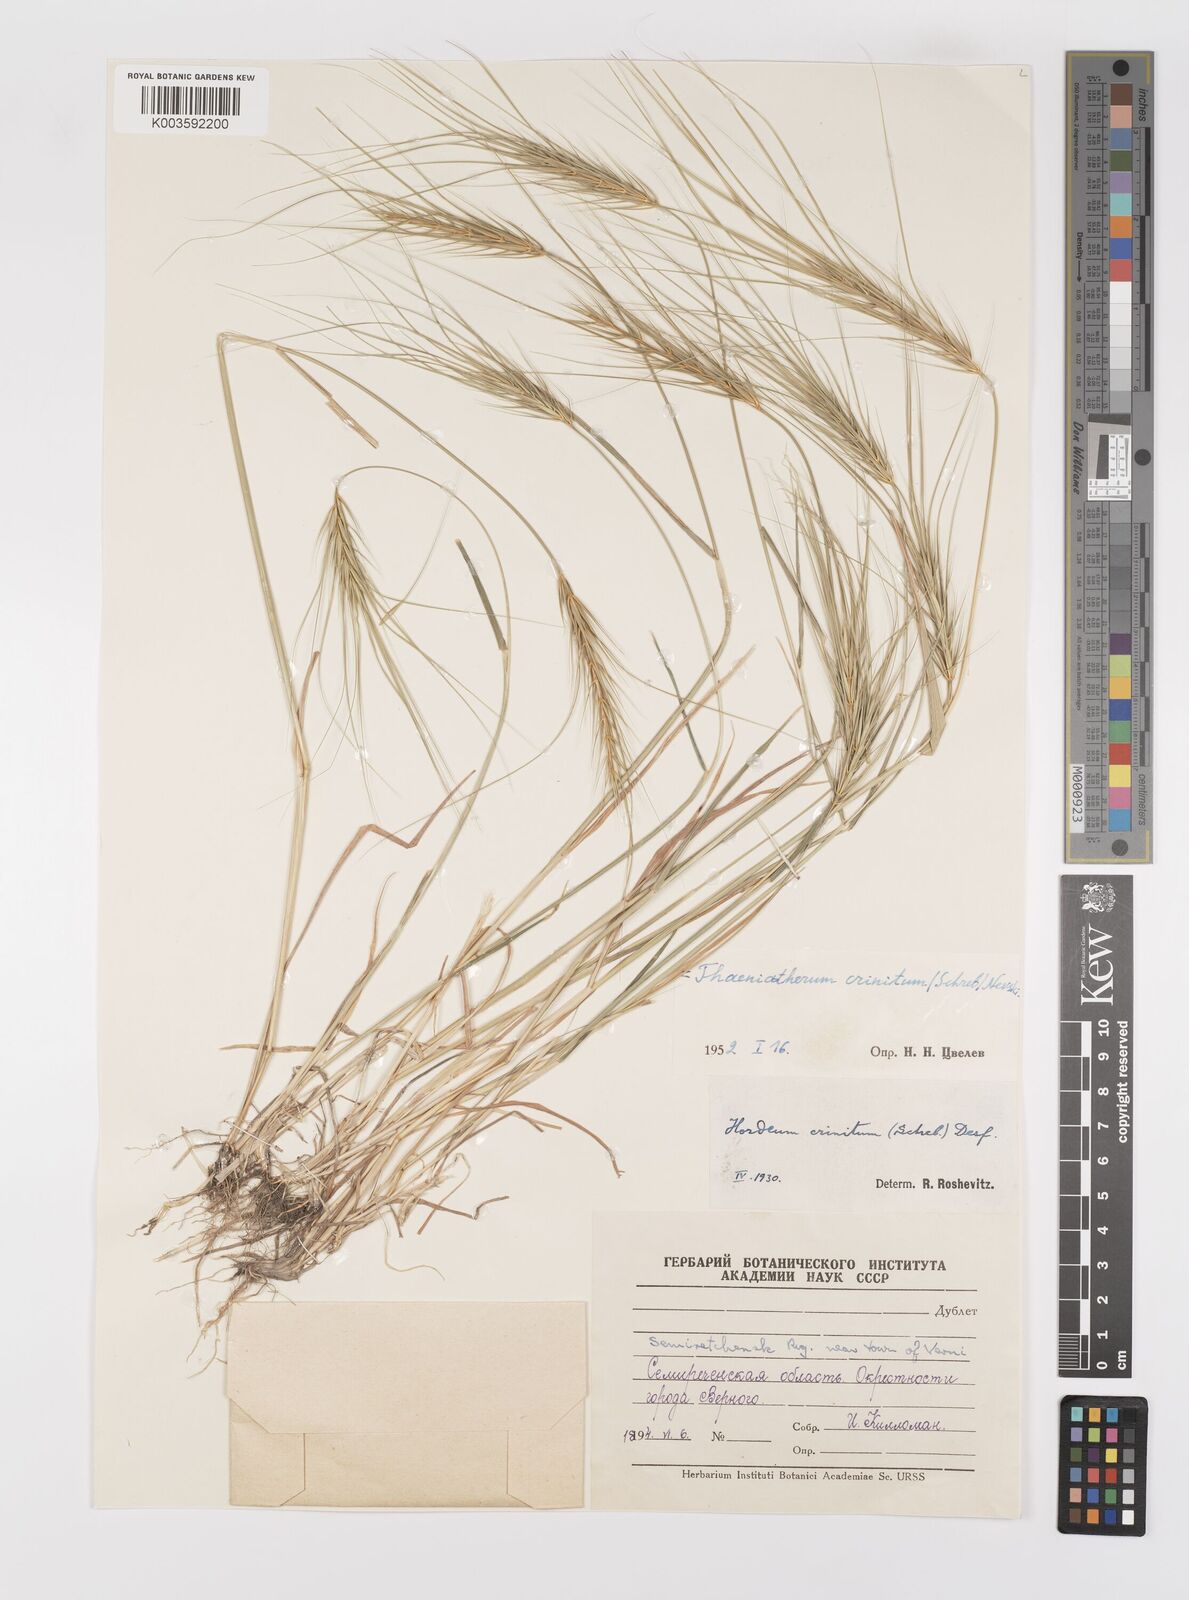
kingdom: Plantae
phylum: Tracheophyta
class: Liliopsida
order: Poales
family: Poaceae
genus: Taeniatherum
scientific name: Taeniatherum caput-medusae
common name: Medusahead
